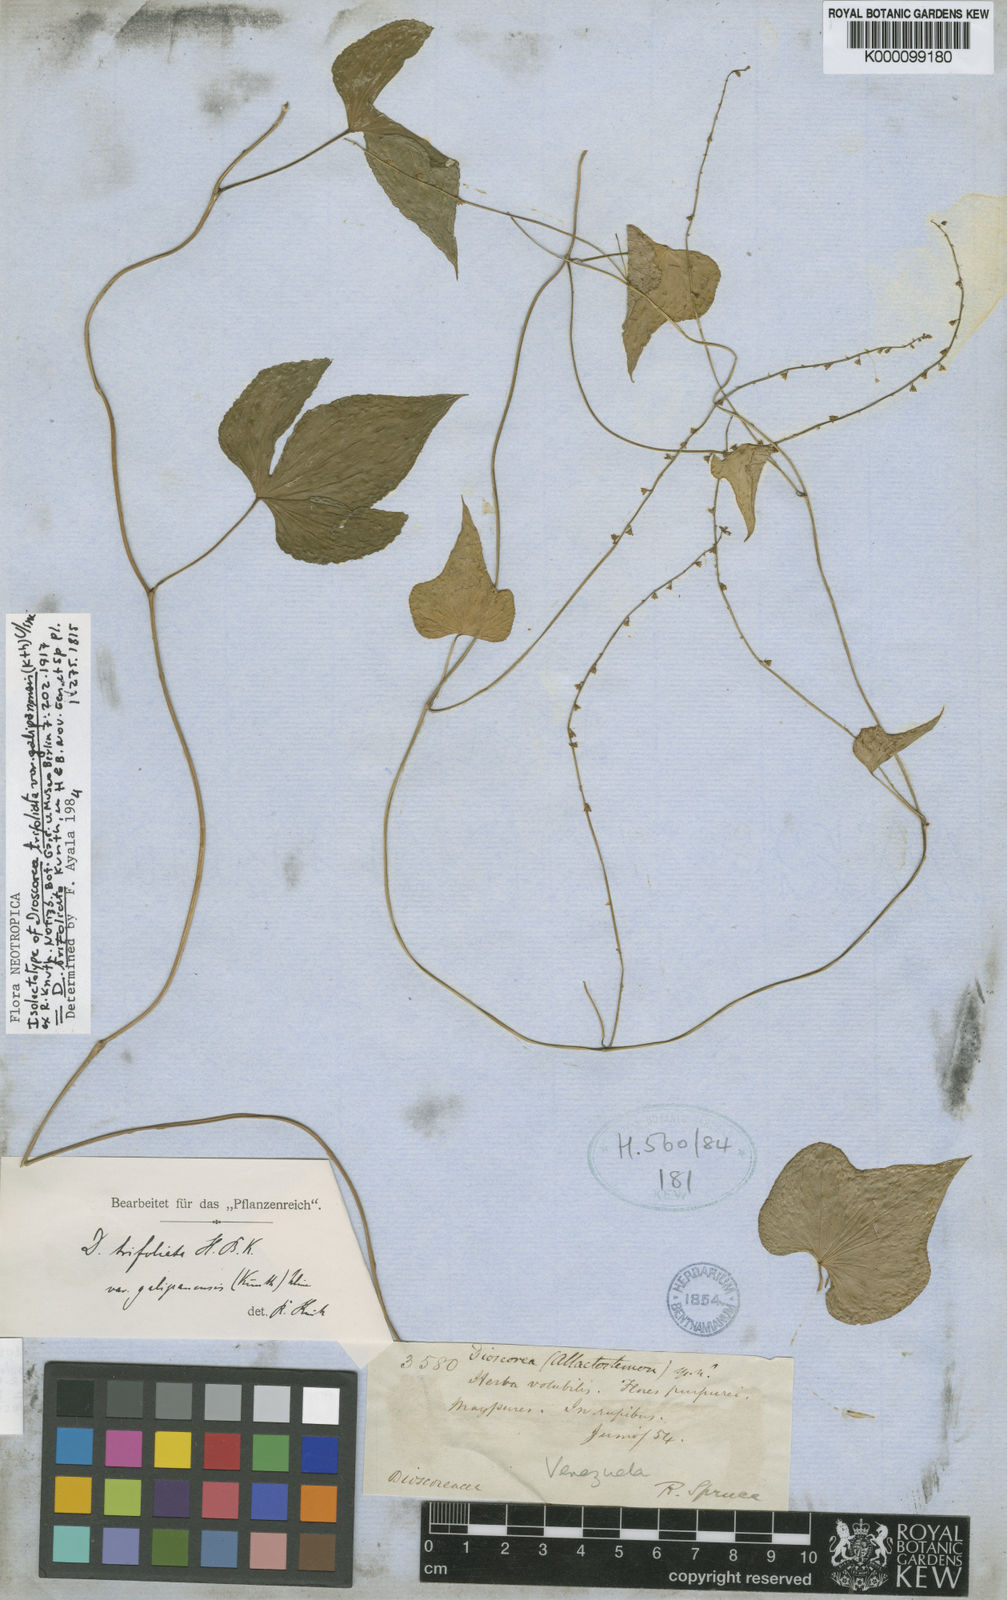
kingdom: Plantae
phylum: Tracheophyta
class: Liliopsida
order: Dioscoreales
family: Dioscoreaceae
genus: Dioscorea
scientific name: Dioscorea trifoliata
